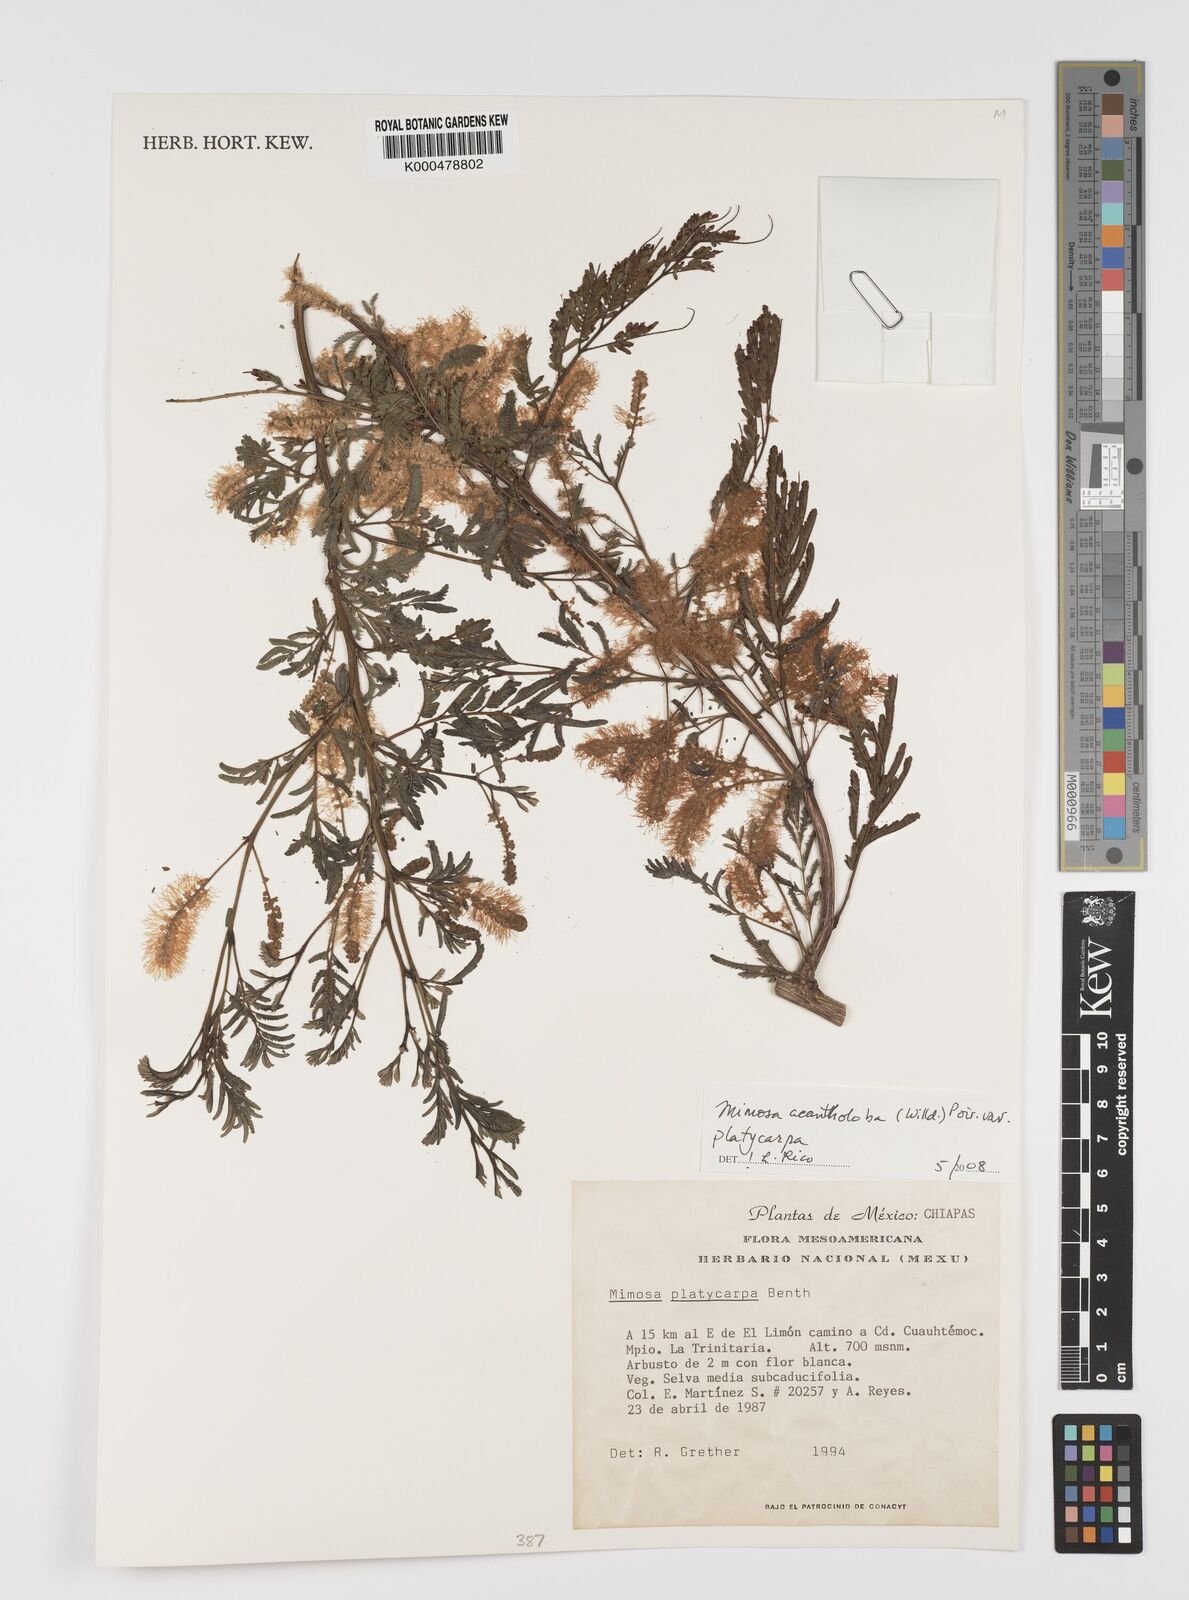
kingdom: Plantae
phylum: Tracheophyta
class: Magnoliopsida
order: Fabales
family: Fabaceae
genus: Mimosa
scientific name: Mimosa platycarpa
